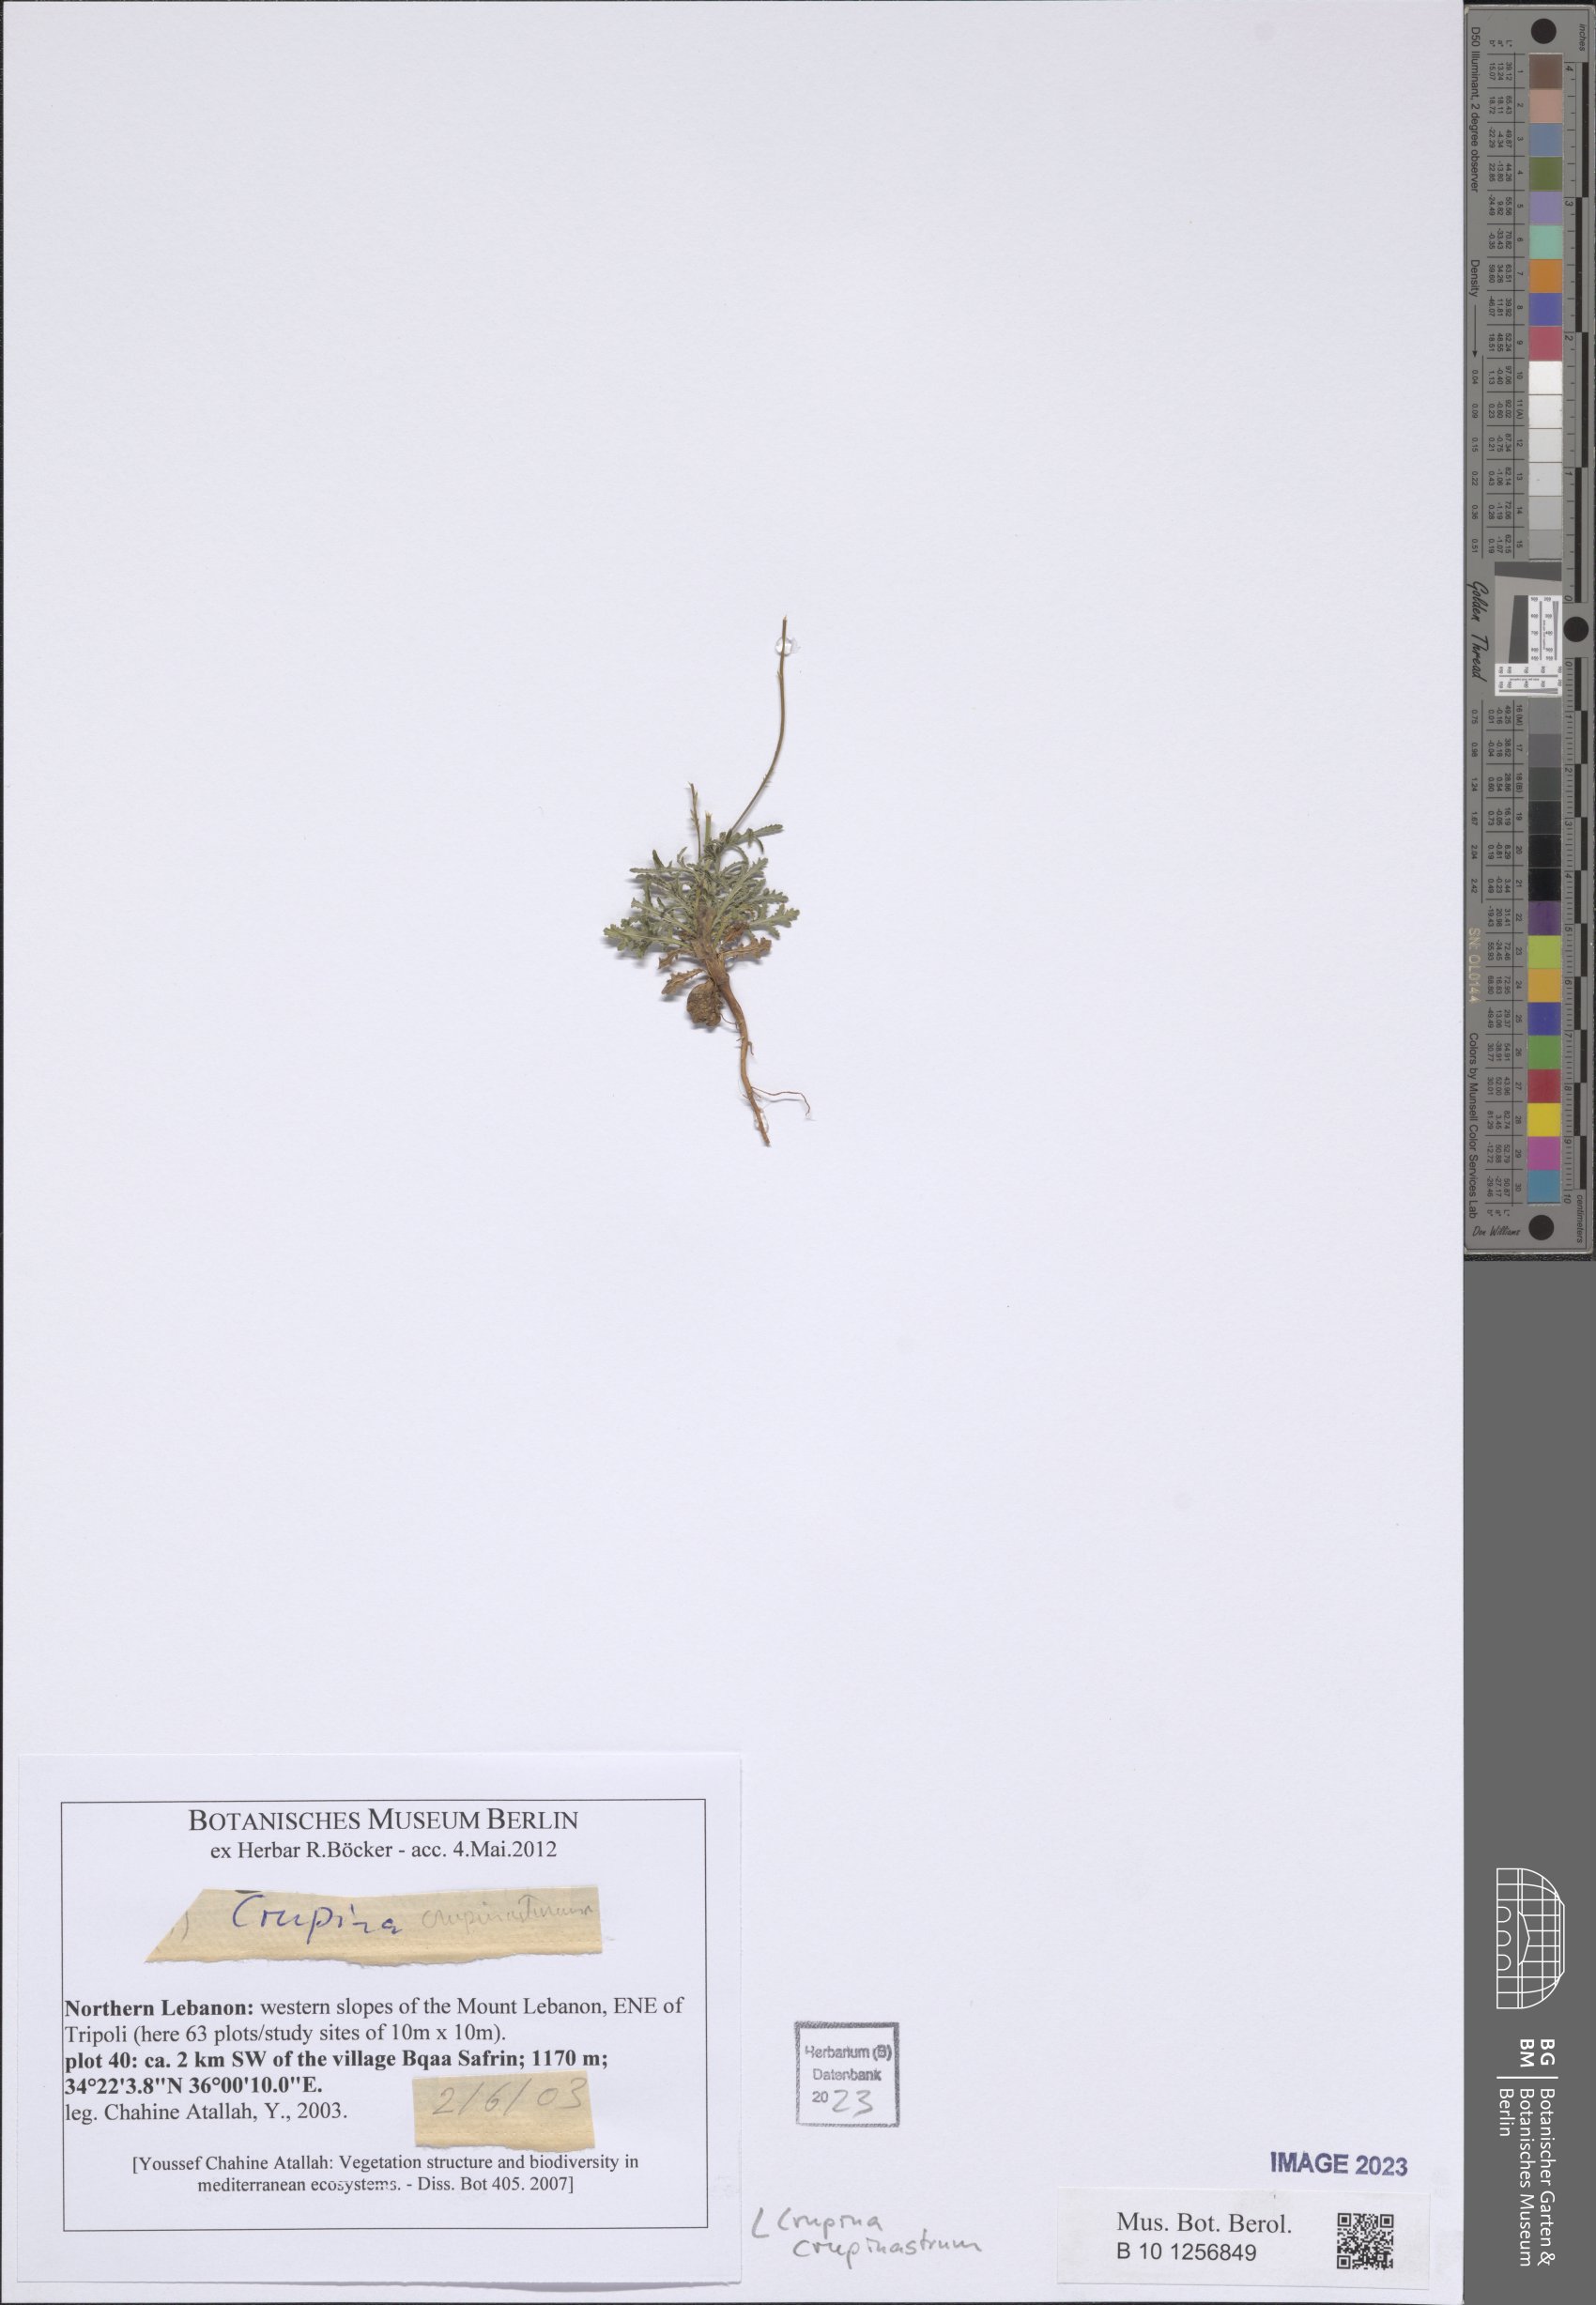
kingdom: Plantae
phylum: Tracheophyta
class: Magnoliopsida
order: Asterales
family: Asteraceae
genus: Crupina
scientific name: Crupina crupinastrum
